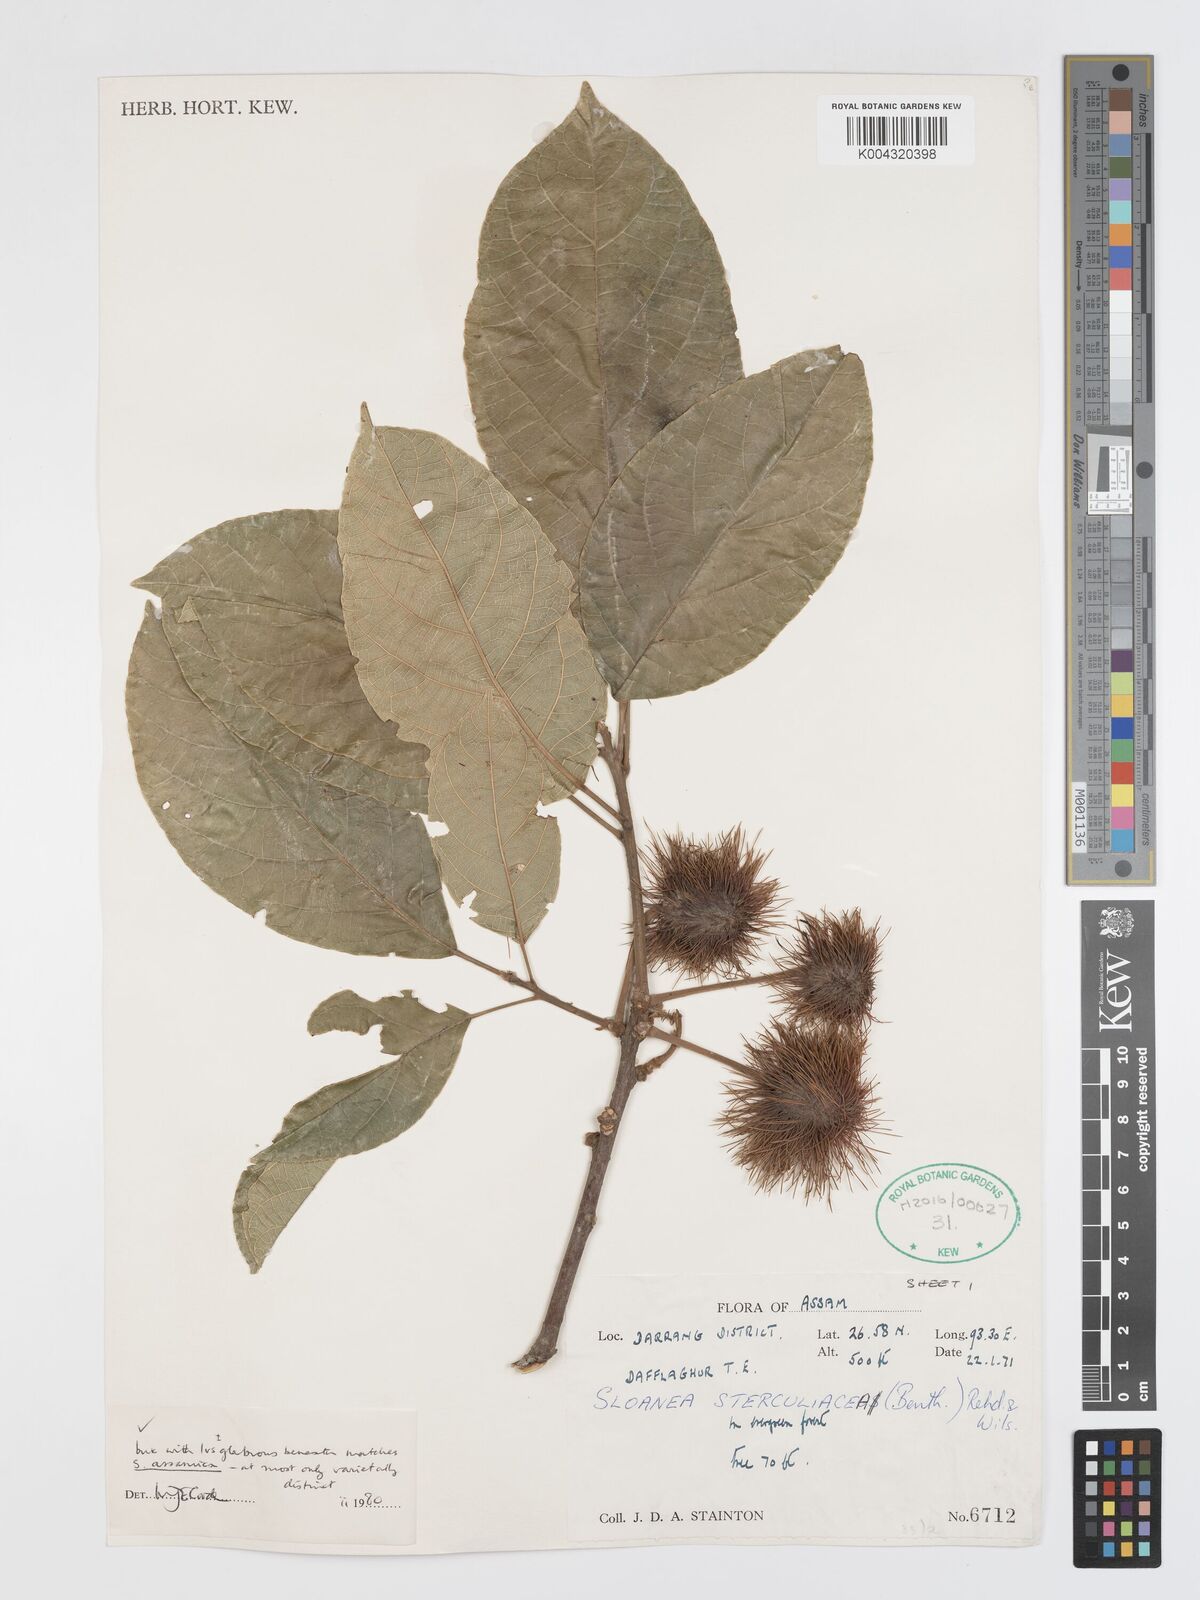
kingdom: Plantae
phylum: Tracheophyta
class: Magnoliopsida
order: Oxalidales
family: Elaeocarpaceae
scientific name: Elaeocarpaceae
